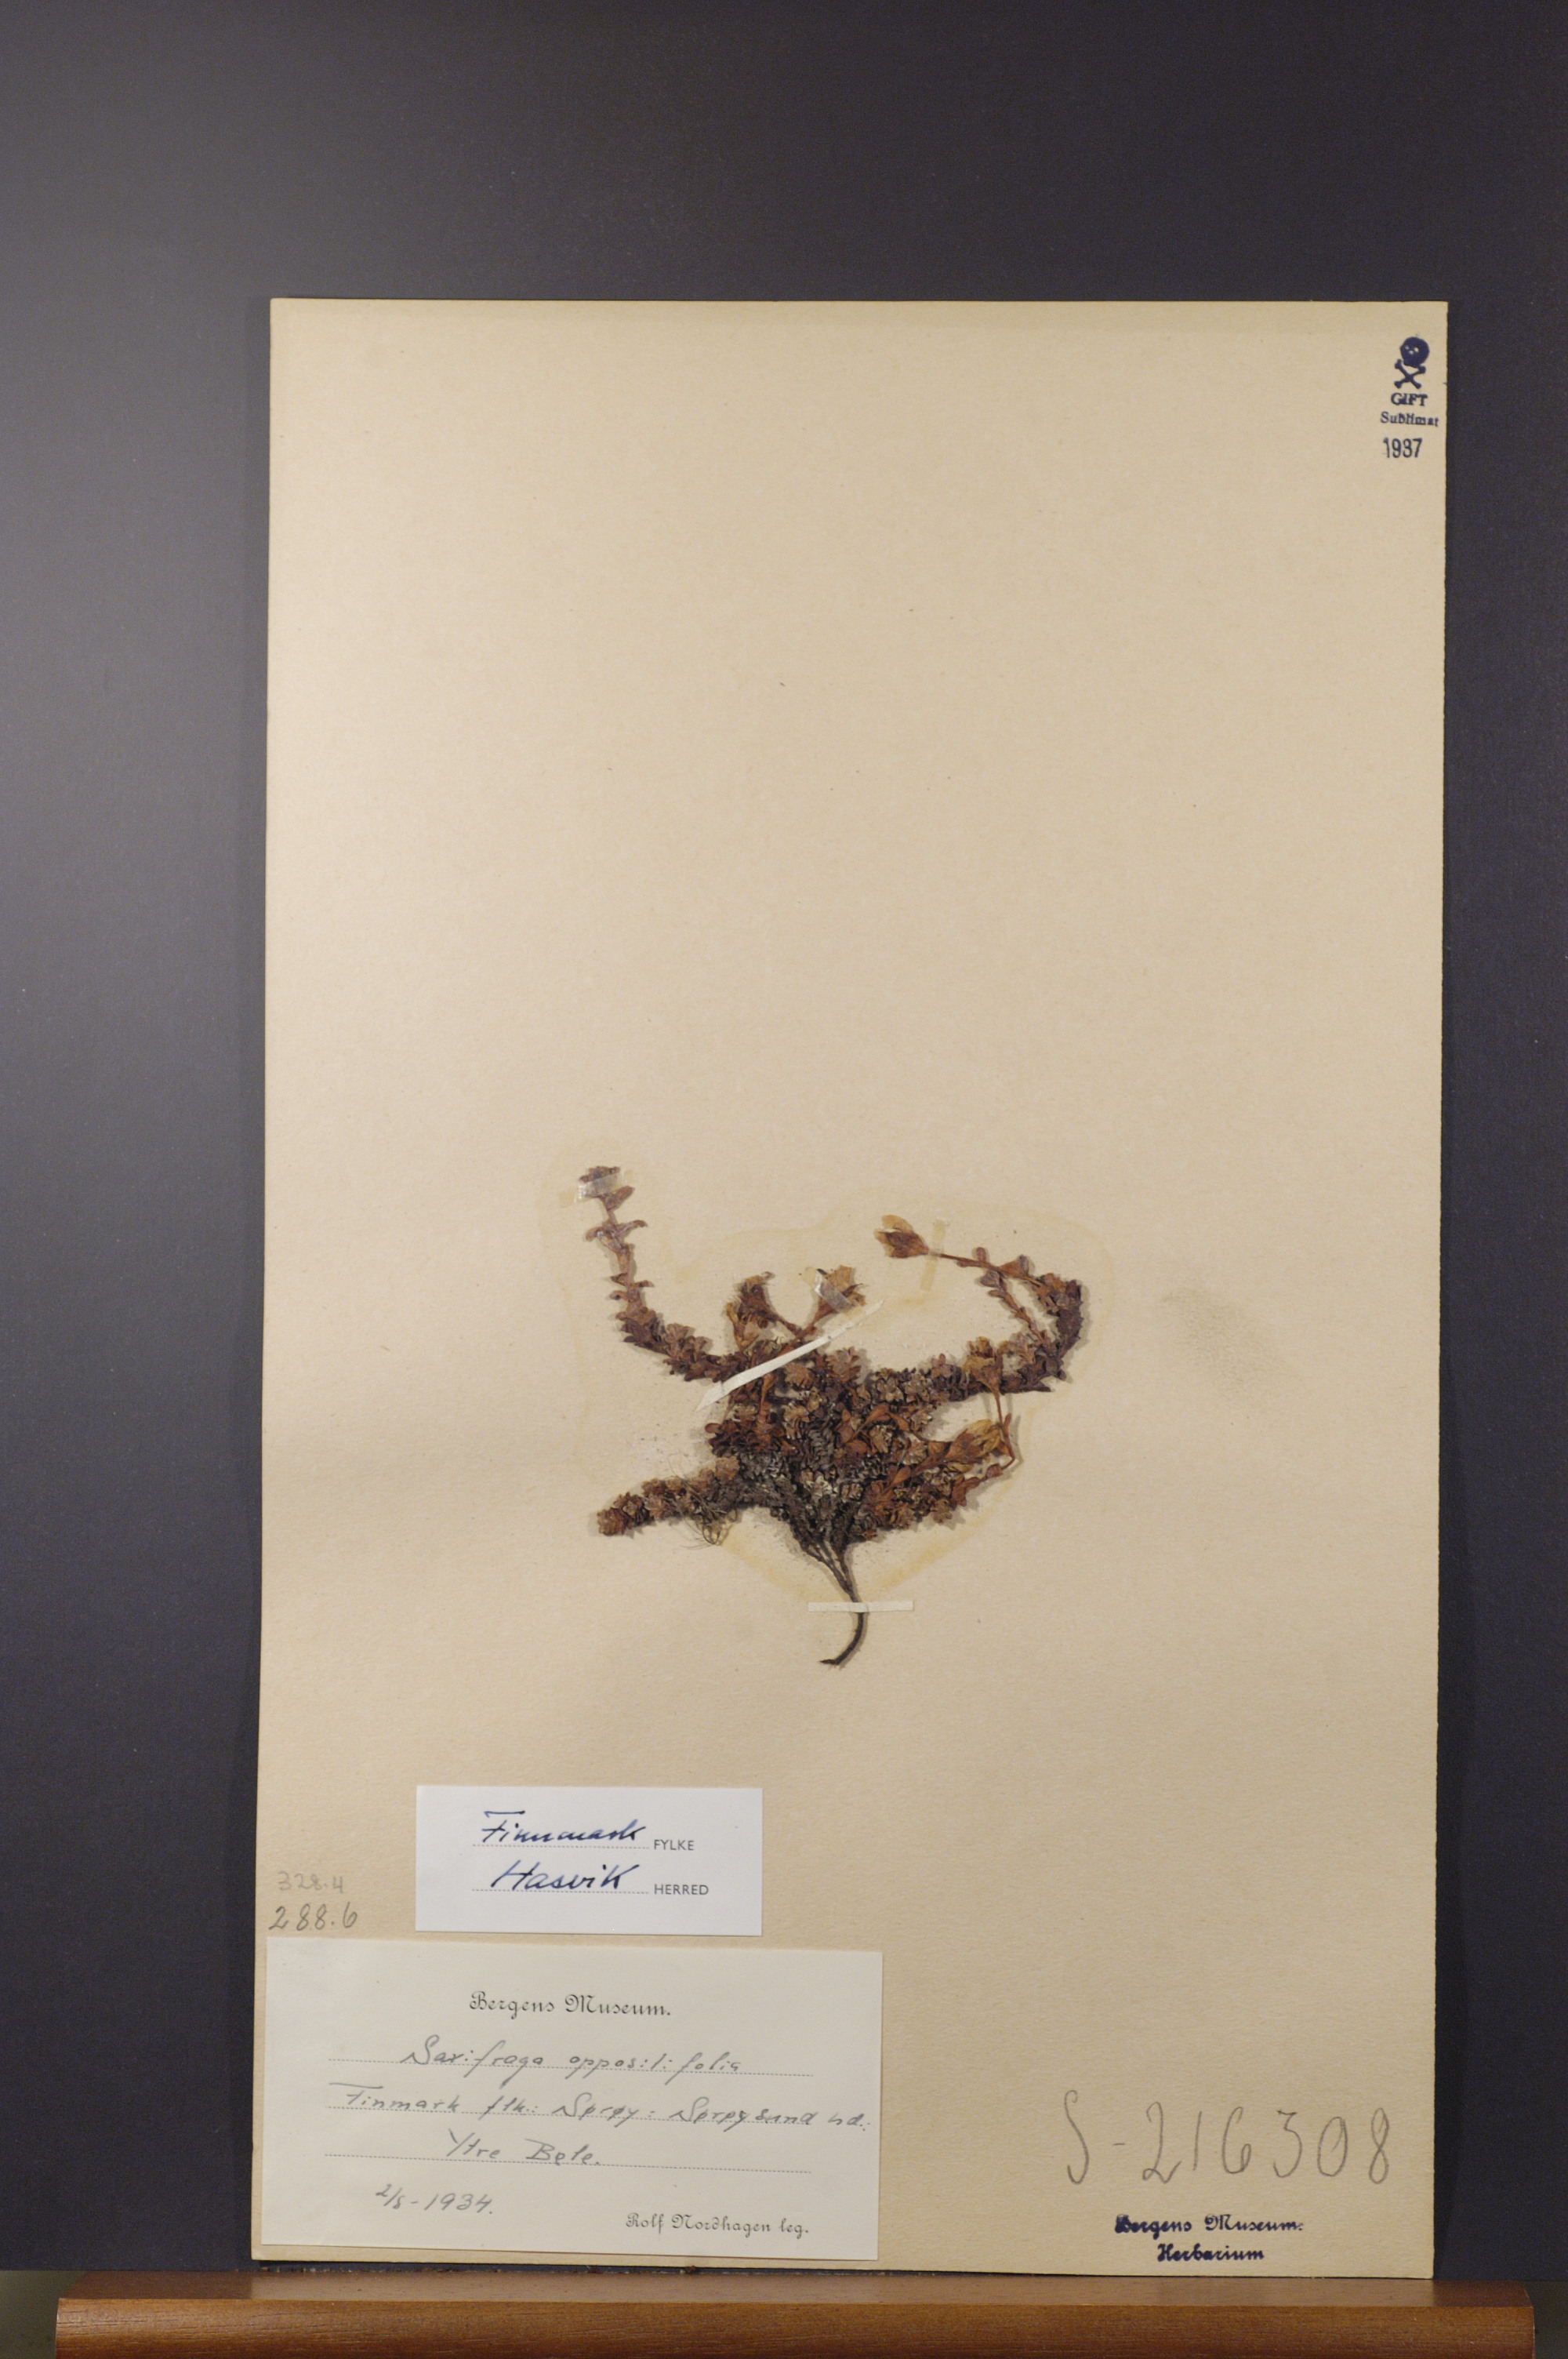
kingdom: Plantae
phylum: Tracheophyta
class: Magnoliopsida
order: Saxifragales
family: Saxifragaceae
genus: Saxifraga
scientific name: Saxifraga oppositifolia
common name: Purple saxifrage
